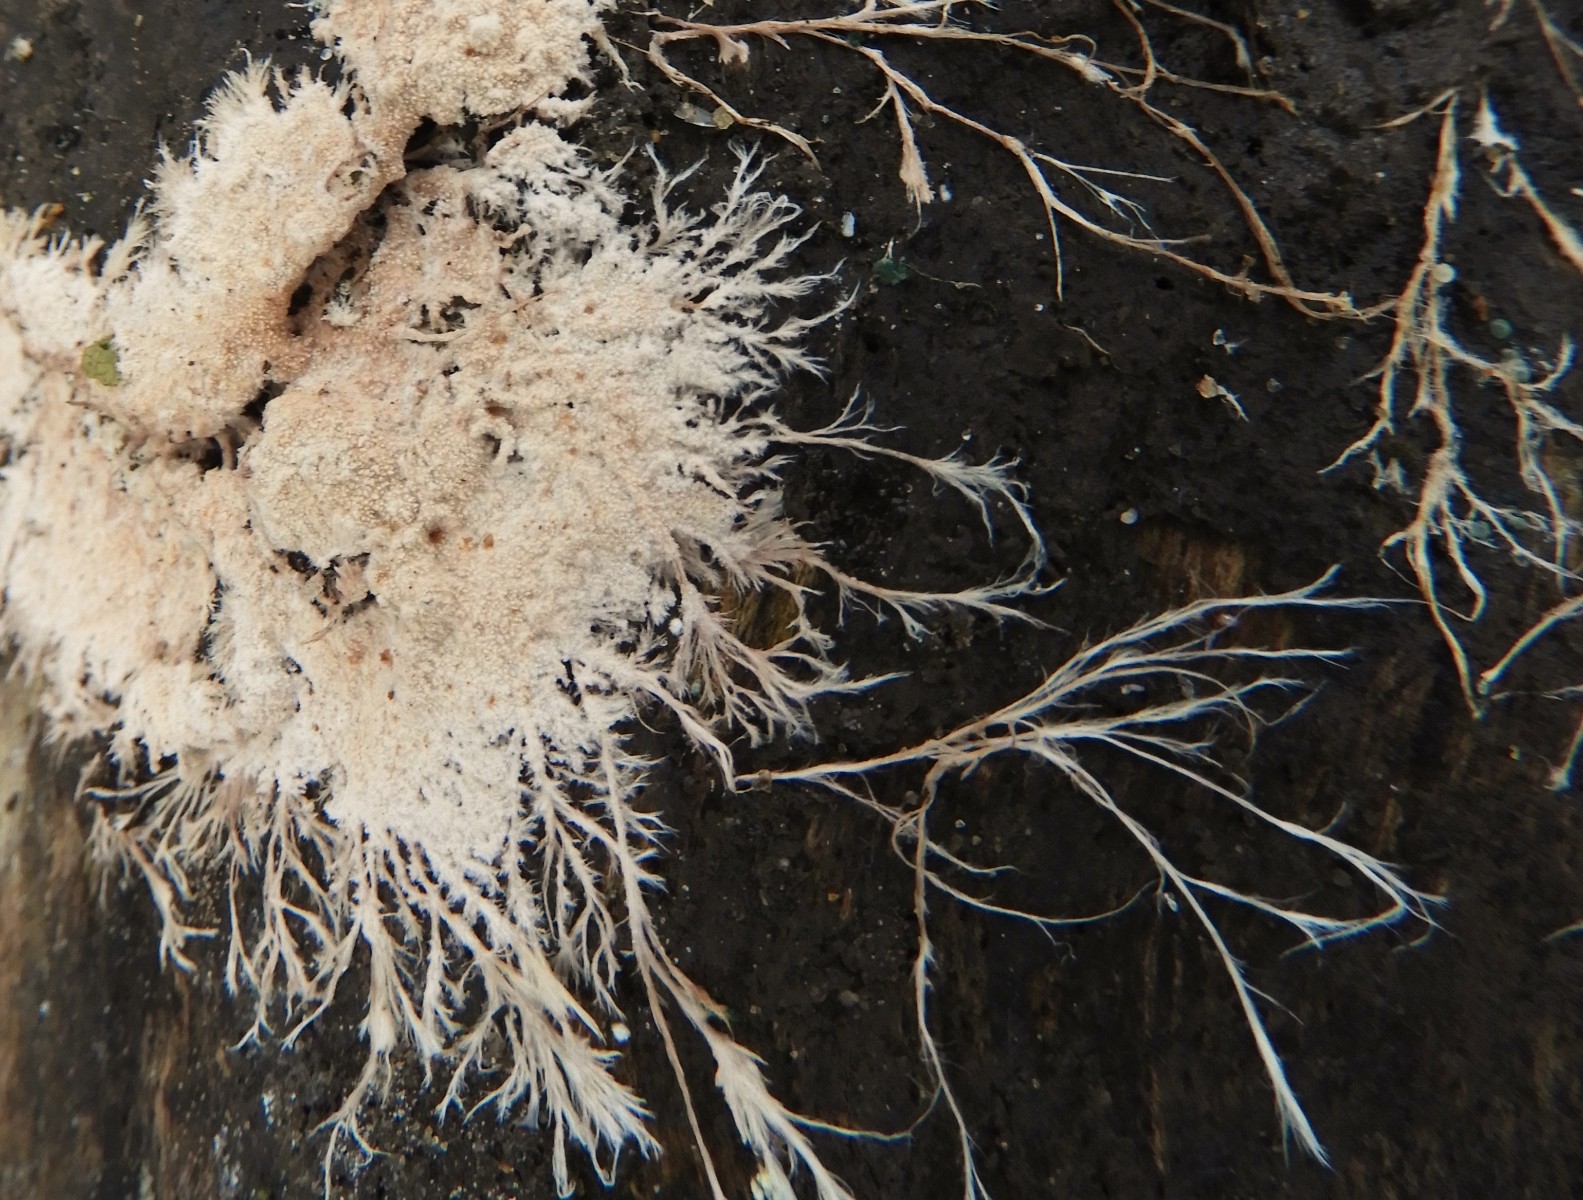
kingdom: Fungi
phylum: Basidiomycota
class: Agaricomycetes
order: Polyporales
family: Steccherinaceae
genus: Steccherinum
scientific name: Steccherinum fimbriatum
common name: trådet skønpig
